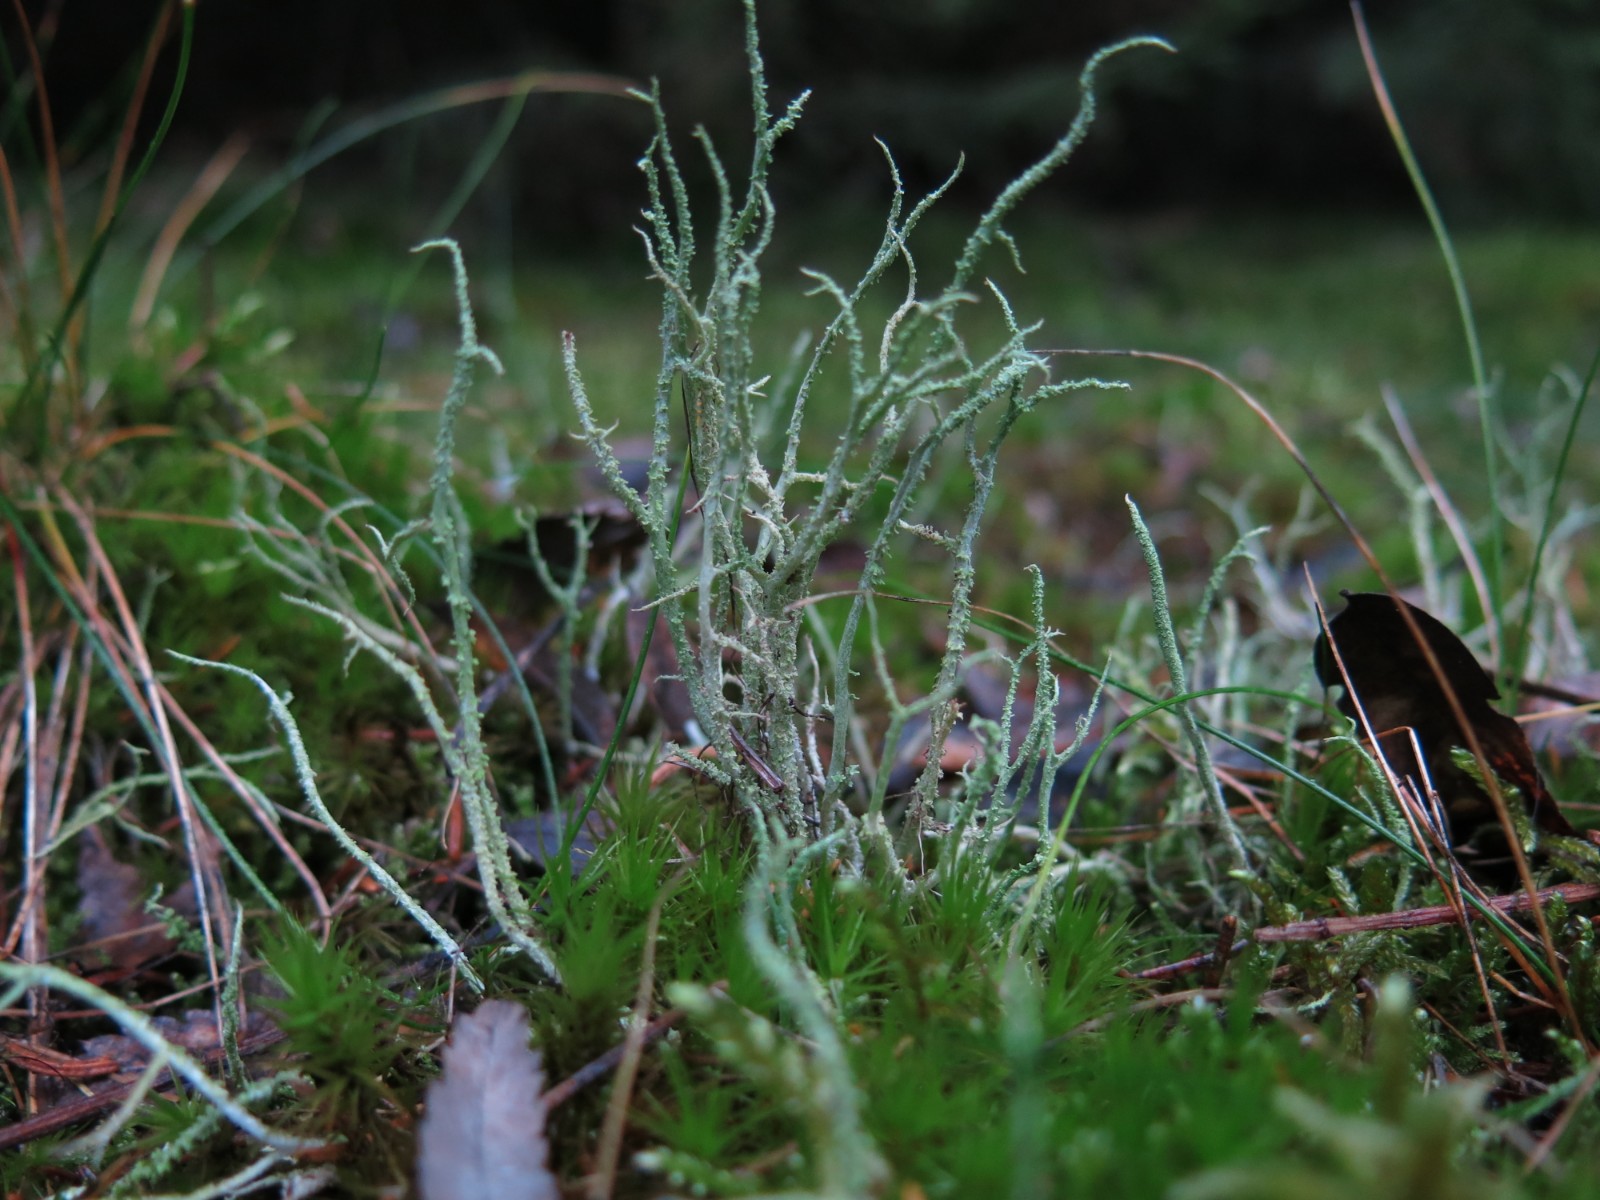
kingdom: Fungi
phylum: Ascomycota
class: Lecanoromycetes
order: Lecanorales
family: Cladoniaceae
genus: Cladonia
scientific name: Cladonia scabriuscula
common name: ru bægerlav
